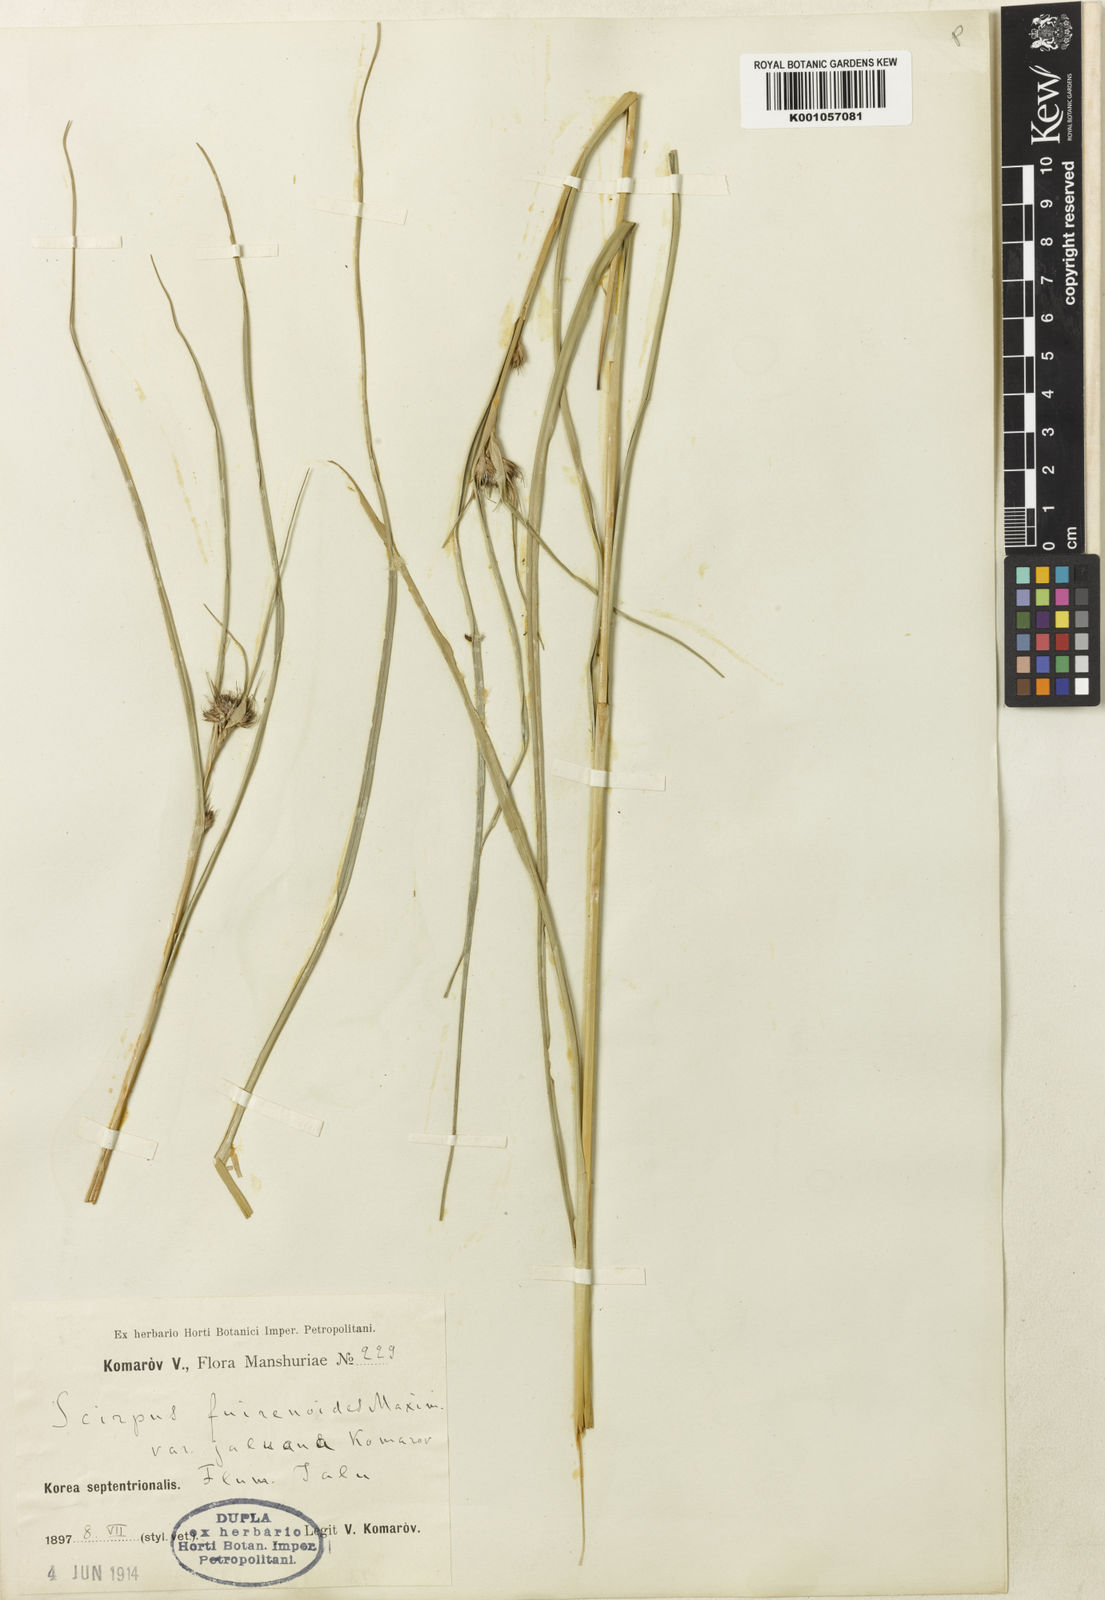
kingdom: Plantae
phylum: Tracheophyta
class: Liliopsida
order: Poales
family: Cyperaceae
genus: Scirpus
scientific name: Scirpus fuirenoides
